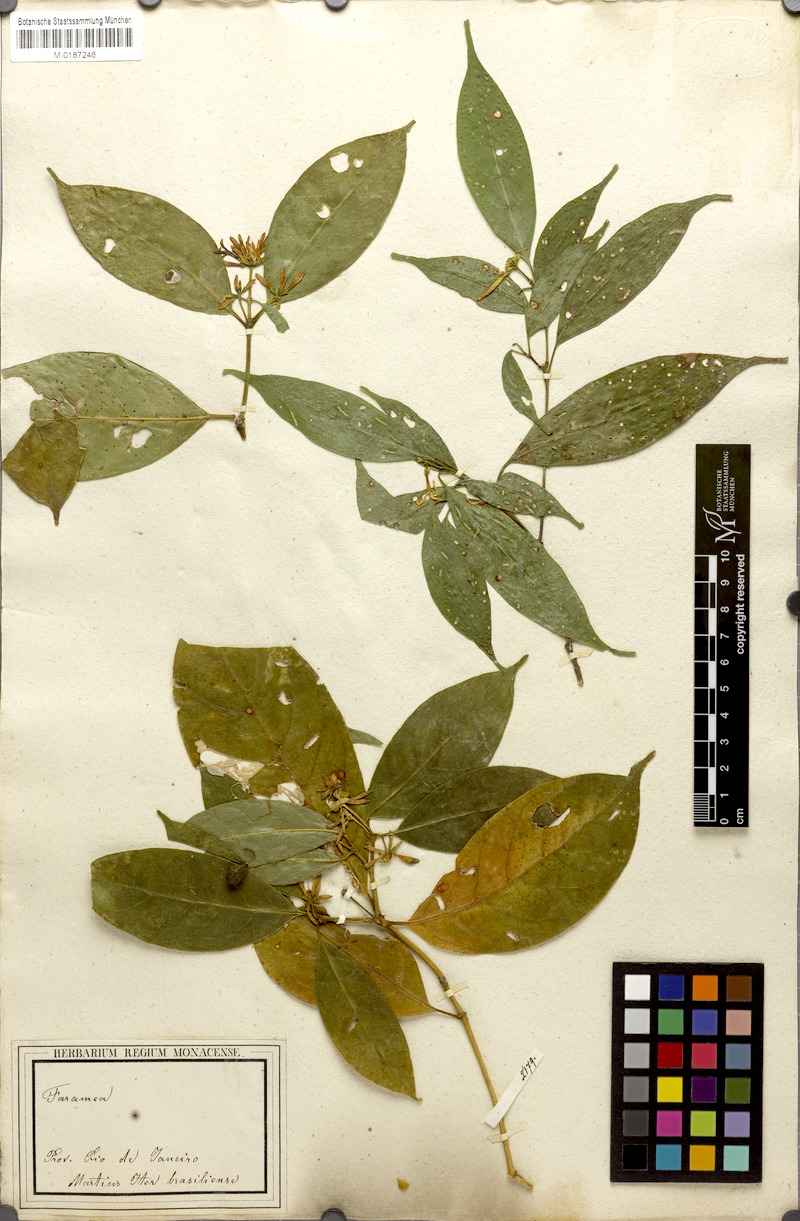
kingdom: Plantae
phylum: Tracheophyta
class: Magnoliopsida
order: Gentianales
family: Rubiaceae
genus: Coussarea
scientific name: Coussarea nodosa
